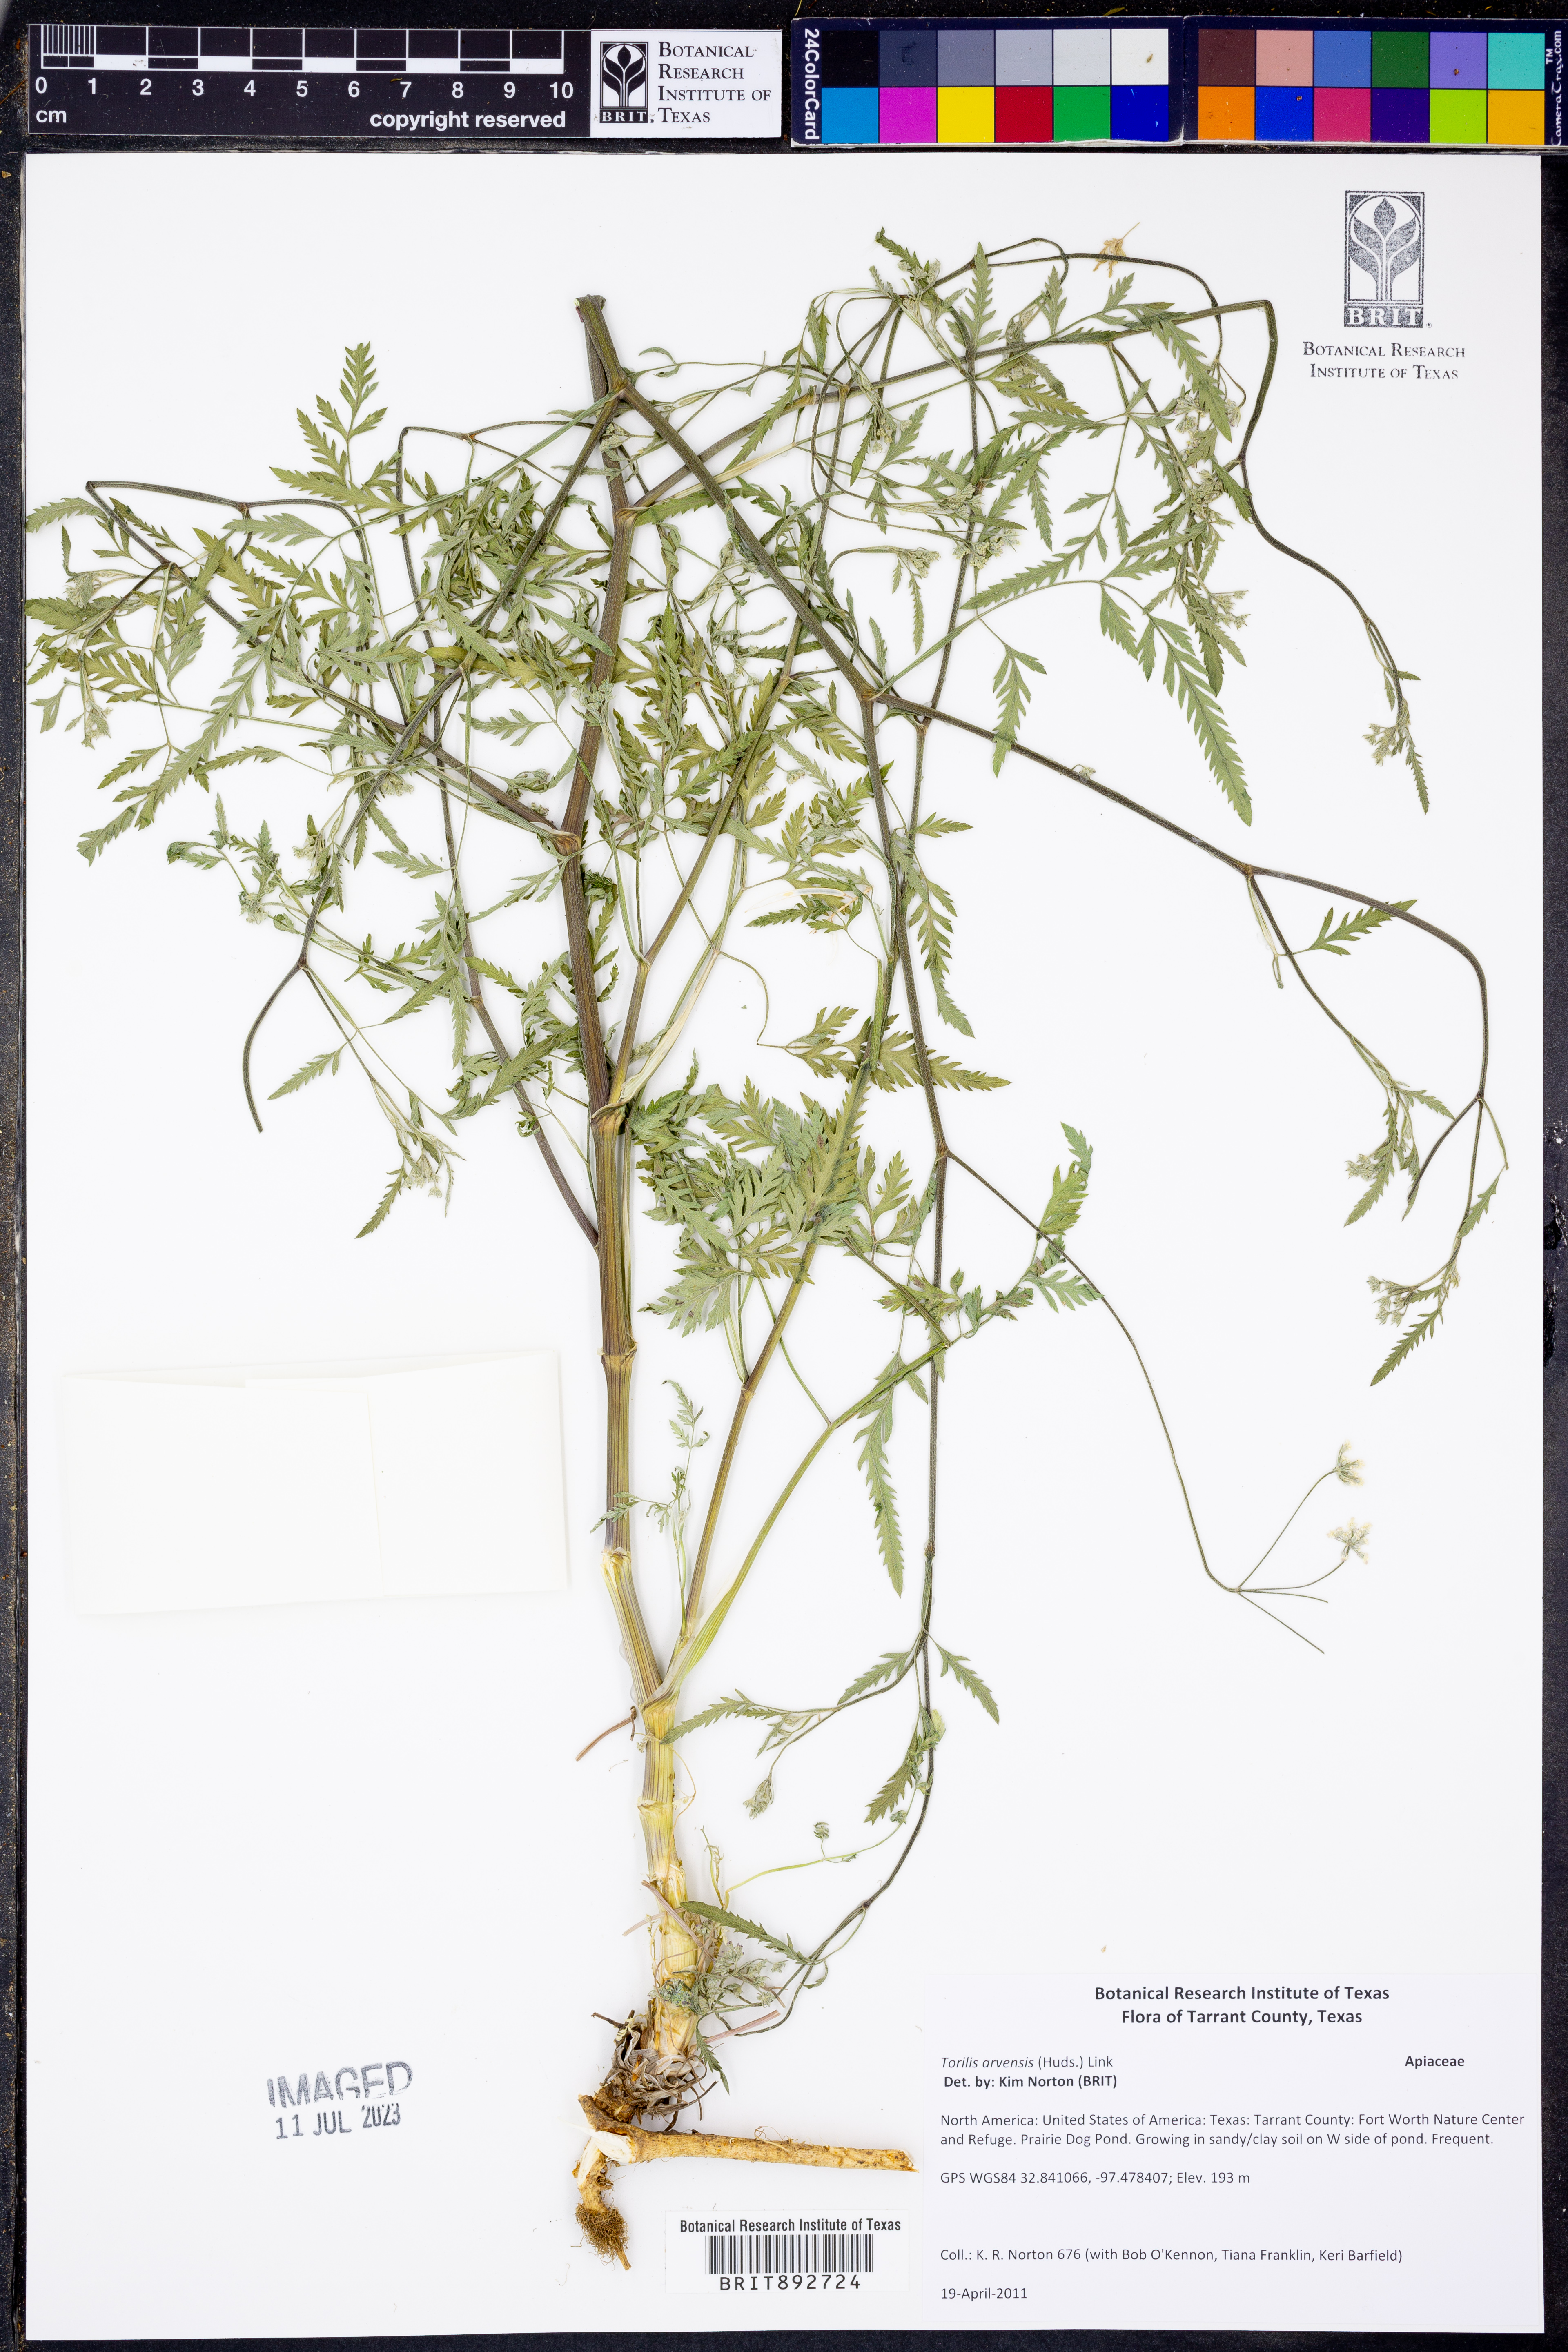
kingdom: Plantae
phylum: Tracheophyta
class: Magnoliopsida
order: Apiales
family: Apiaceae
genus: Torilis
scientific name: Torilis arvensis
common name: Spreading hedge-parsley
